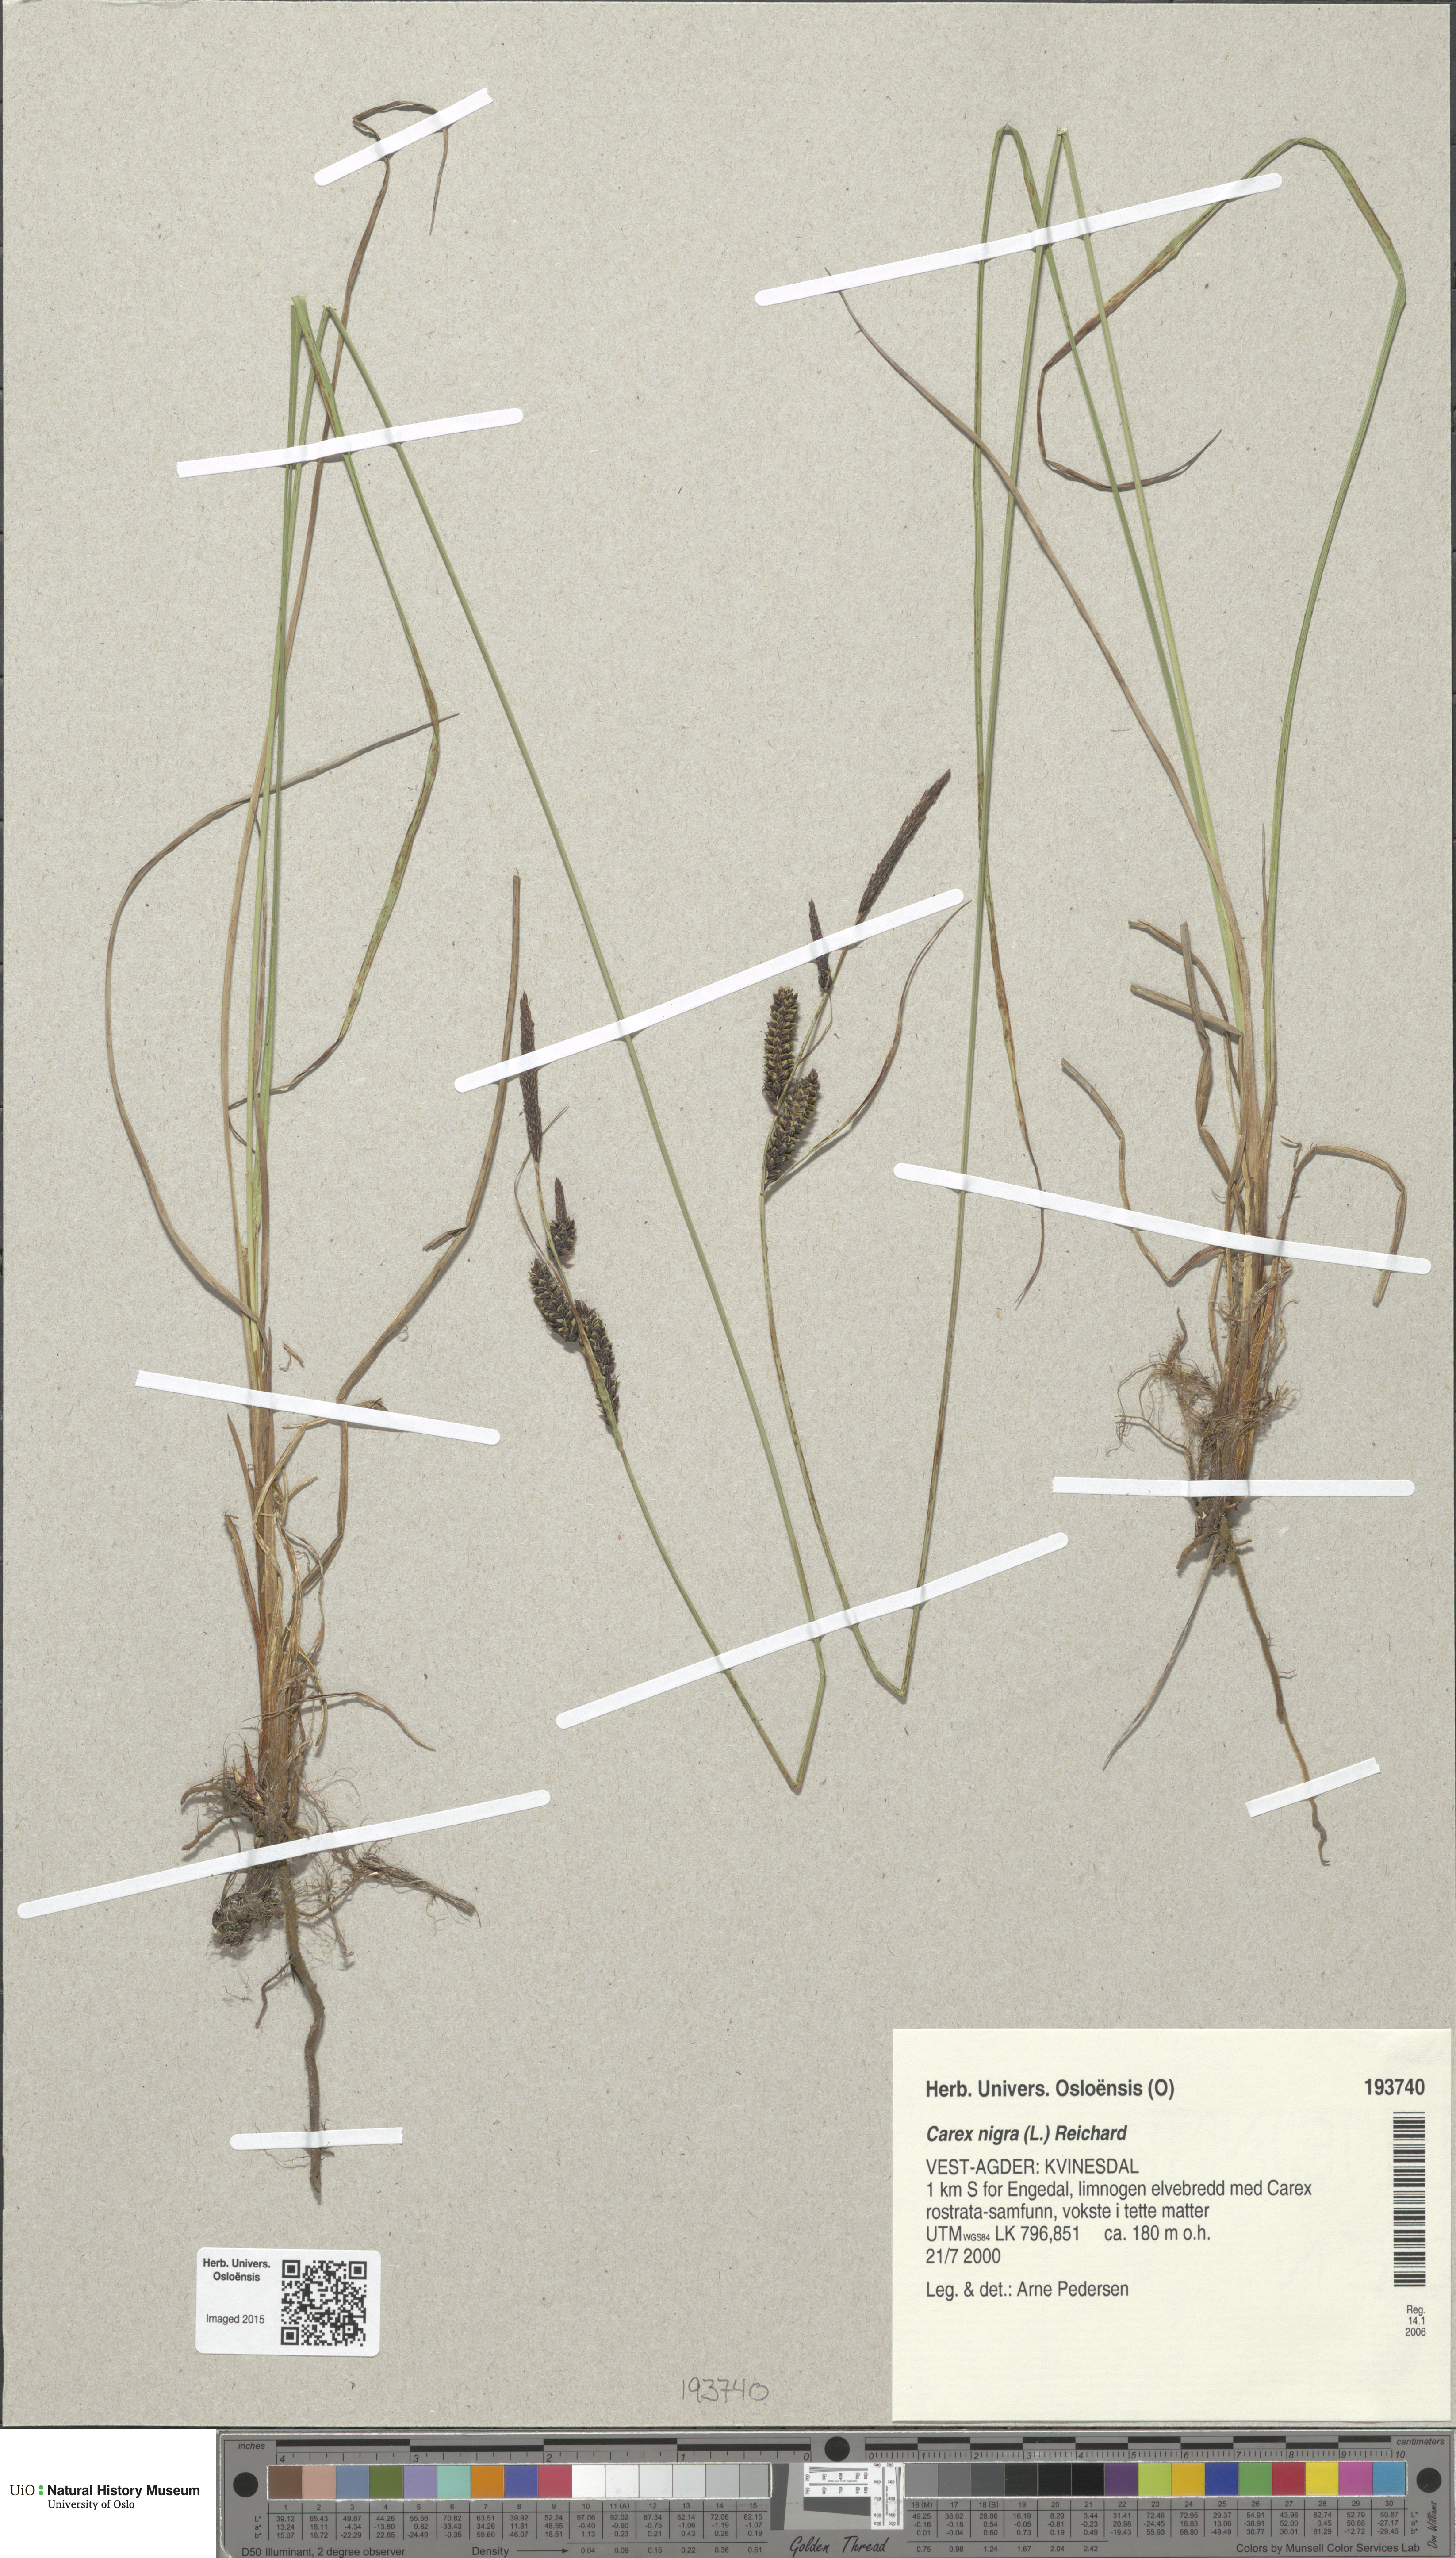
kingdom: Plantae
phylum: Tracheophyta
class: Liliopsida
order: Poales
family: Cyperaceae
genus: Carex
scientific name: Carex nigra
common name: Common sedge
